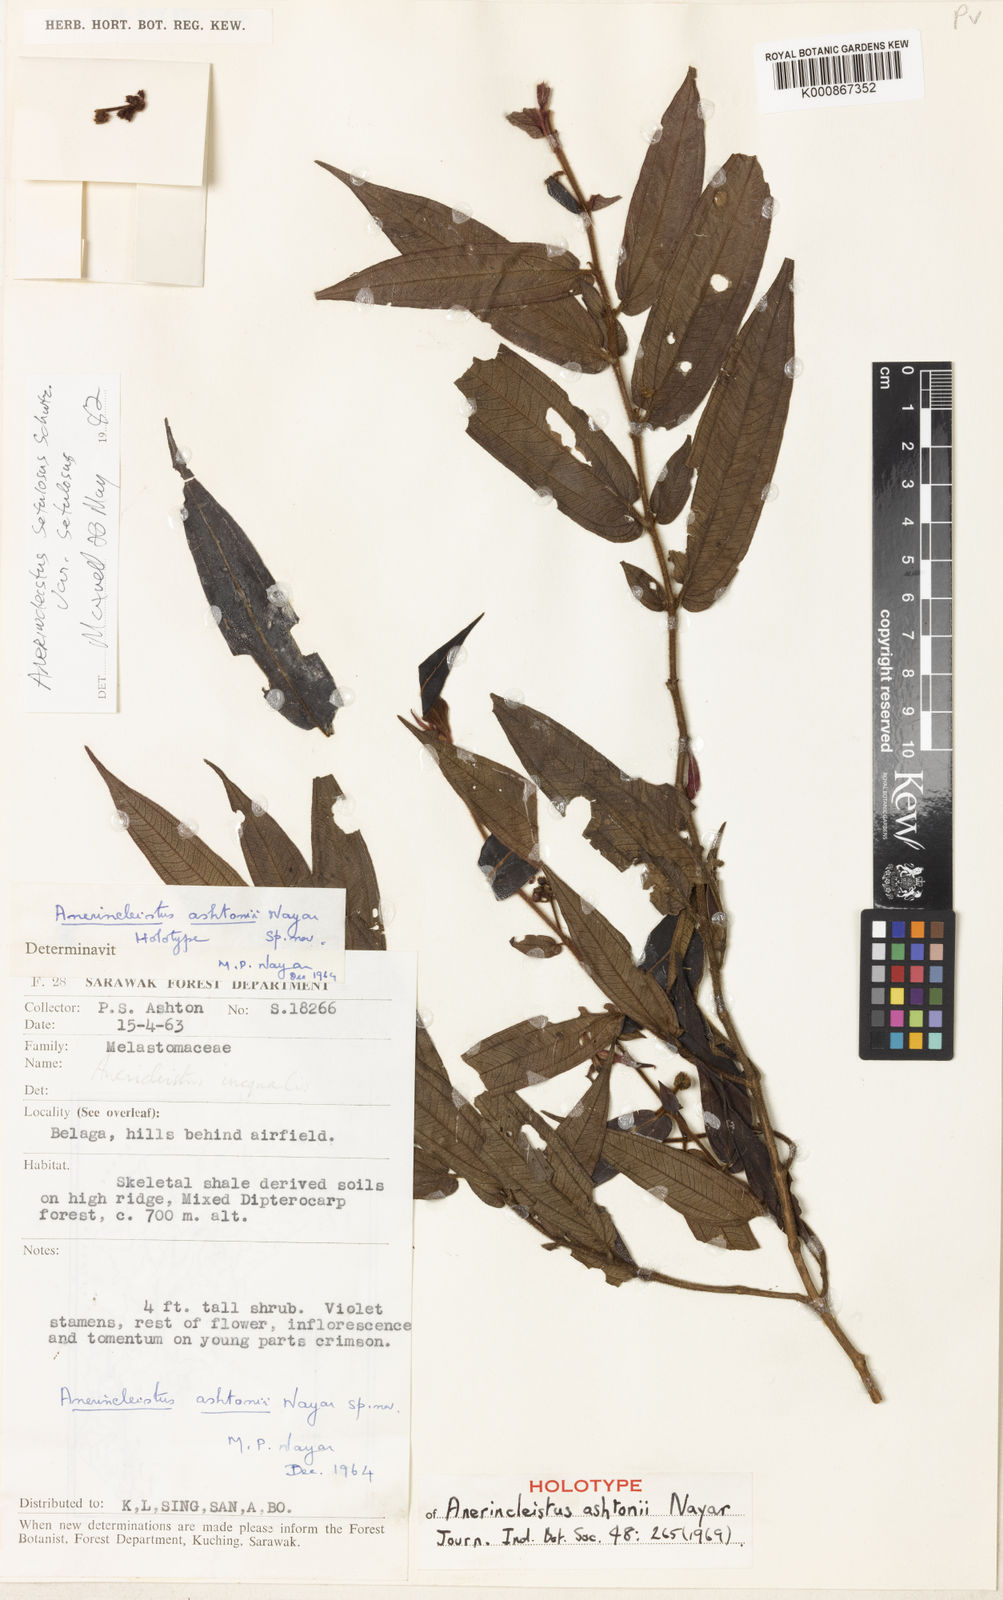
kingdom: Plantae
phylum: Tracheophyta
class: Magnoliopsida
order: Myrtales
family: Melastomataceae
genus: Anerincleistus
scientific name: Anerincleistus
